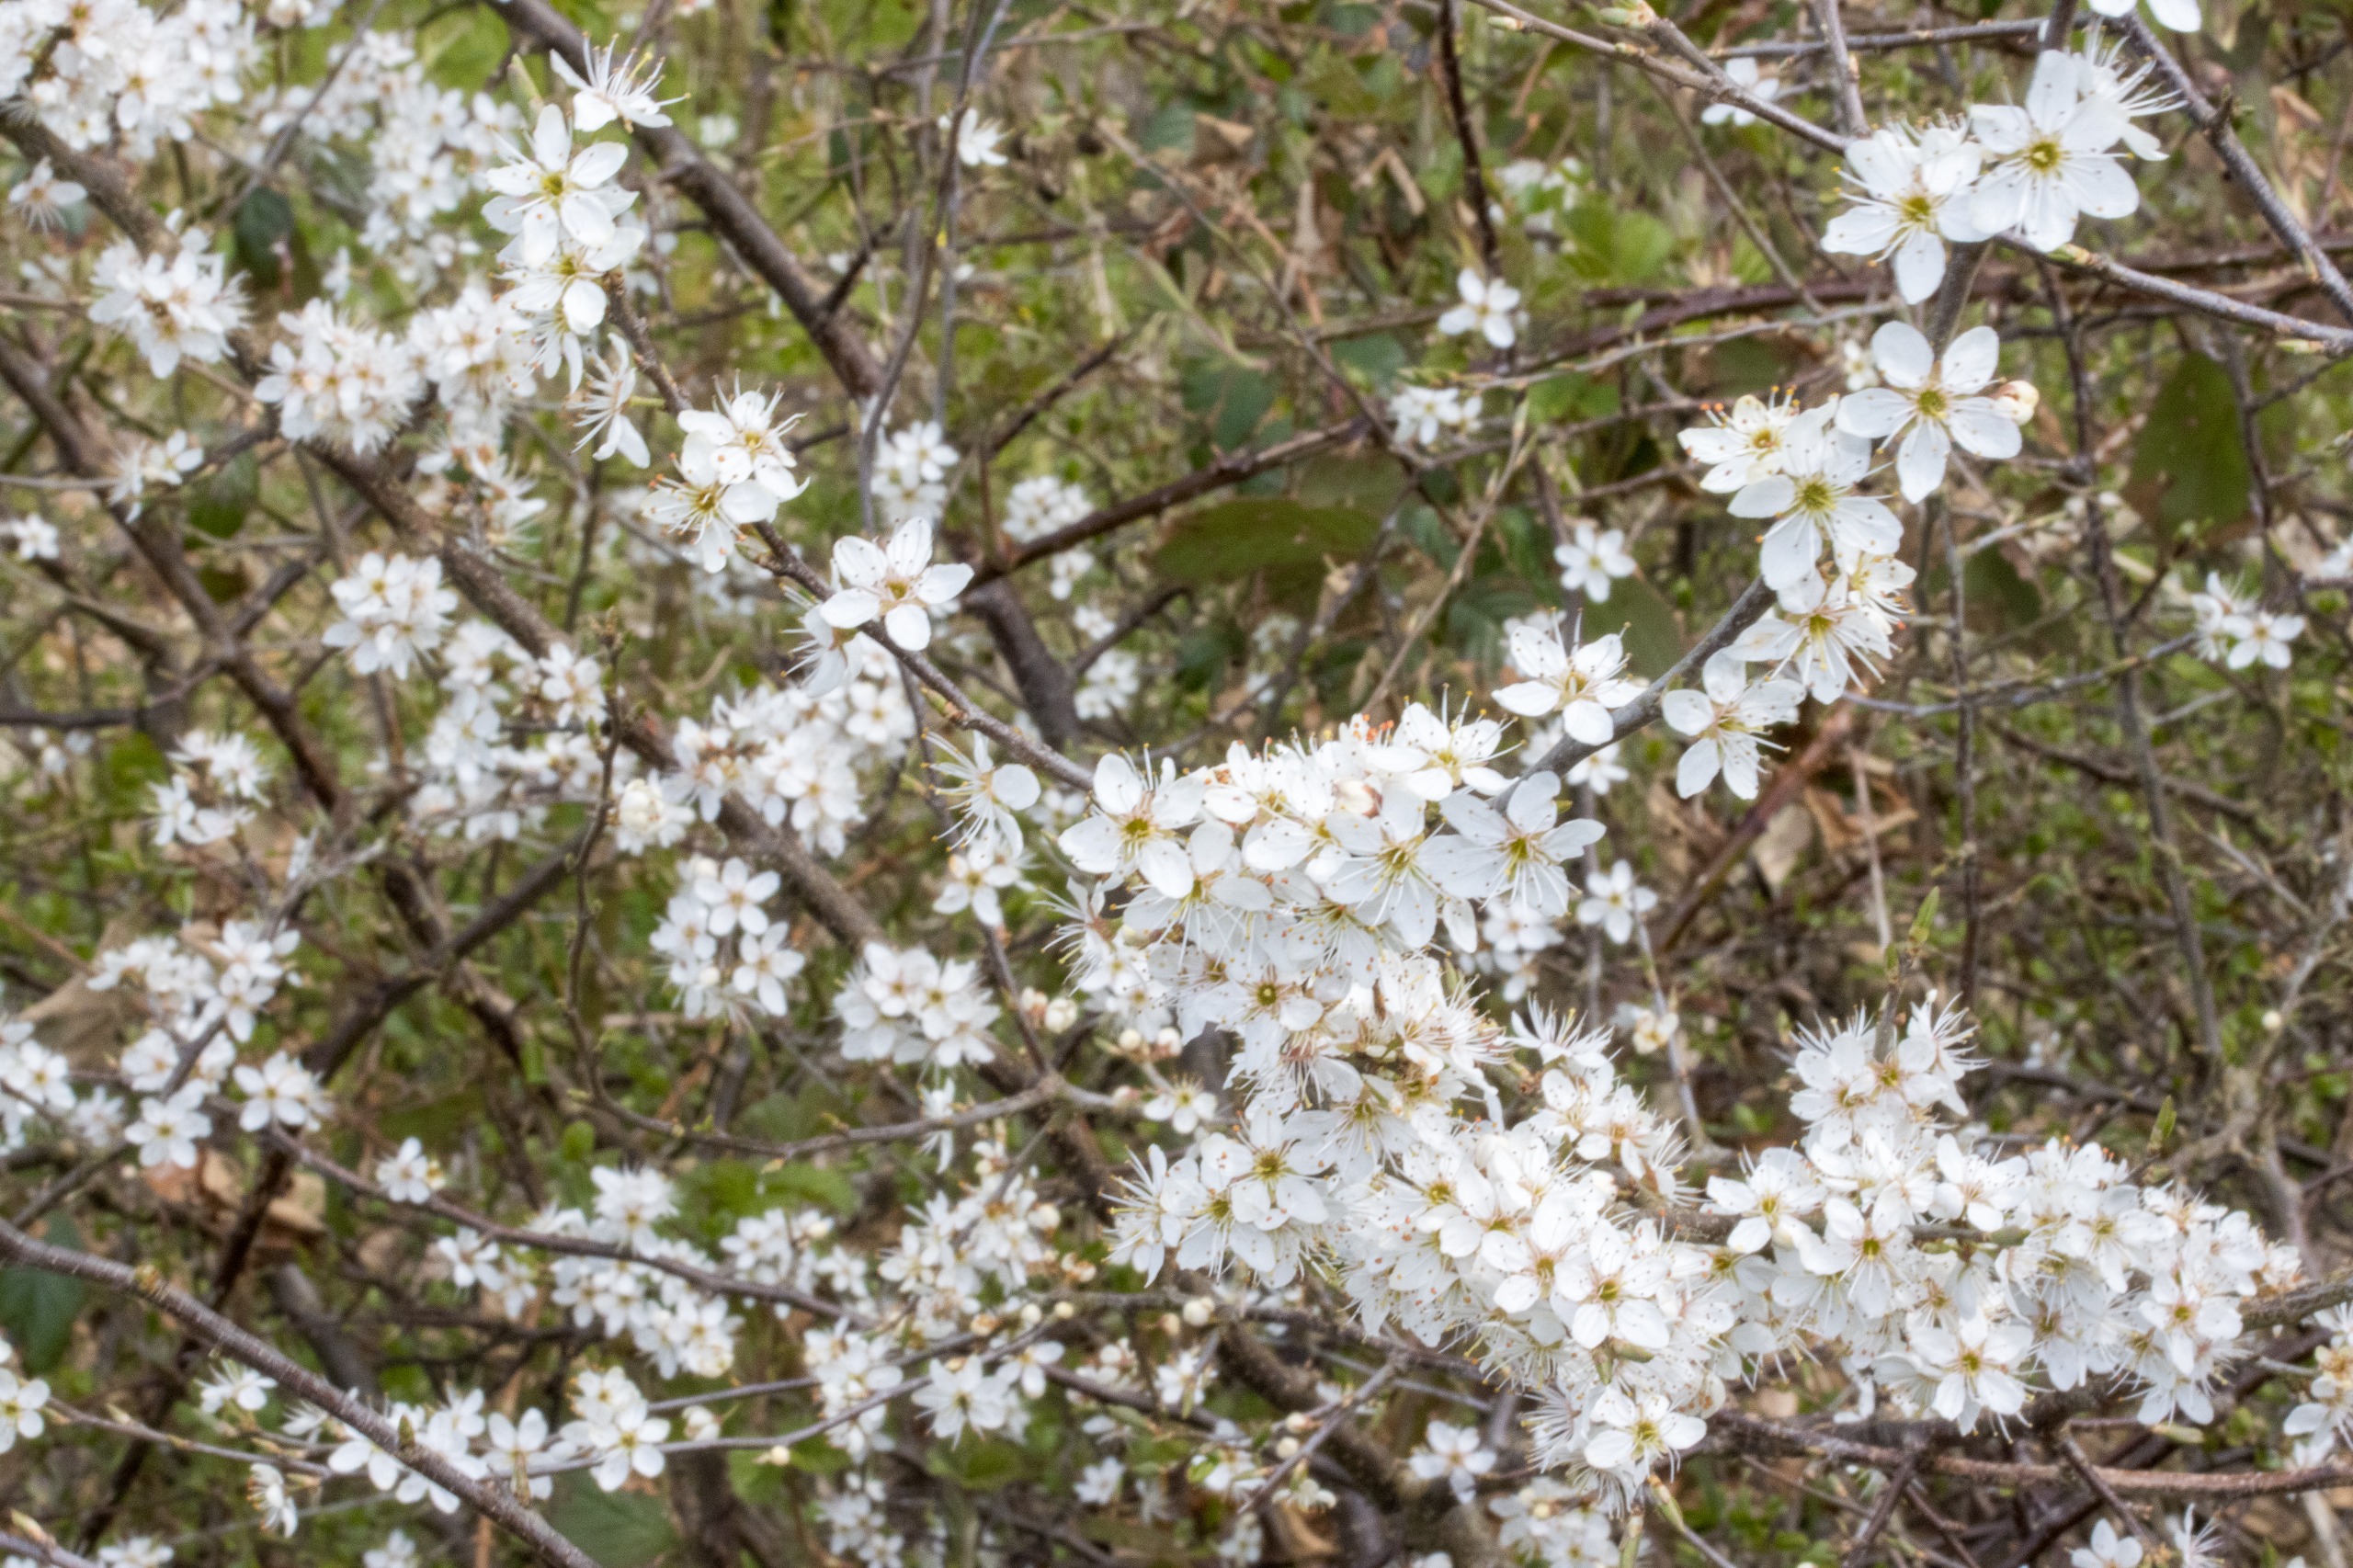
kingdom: Plantae
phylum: Tracheophyta
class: Magnoliopsida
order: Rosales
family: Rosaceae
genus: Prunus
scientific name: Prunus spinosa
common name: Slåen
